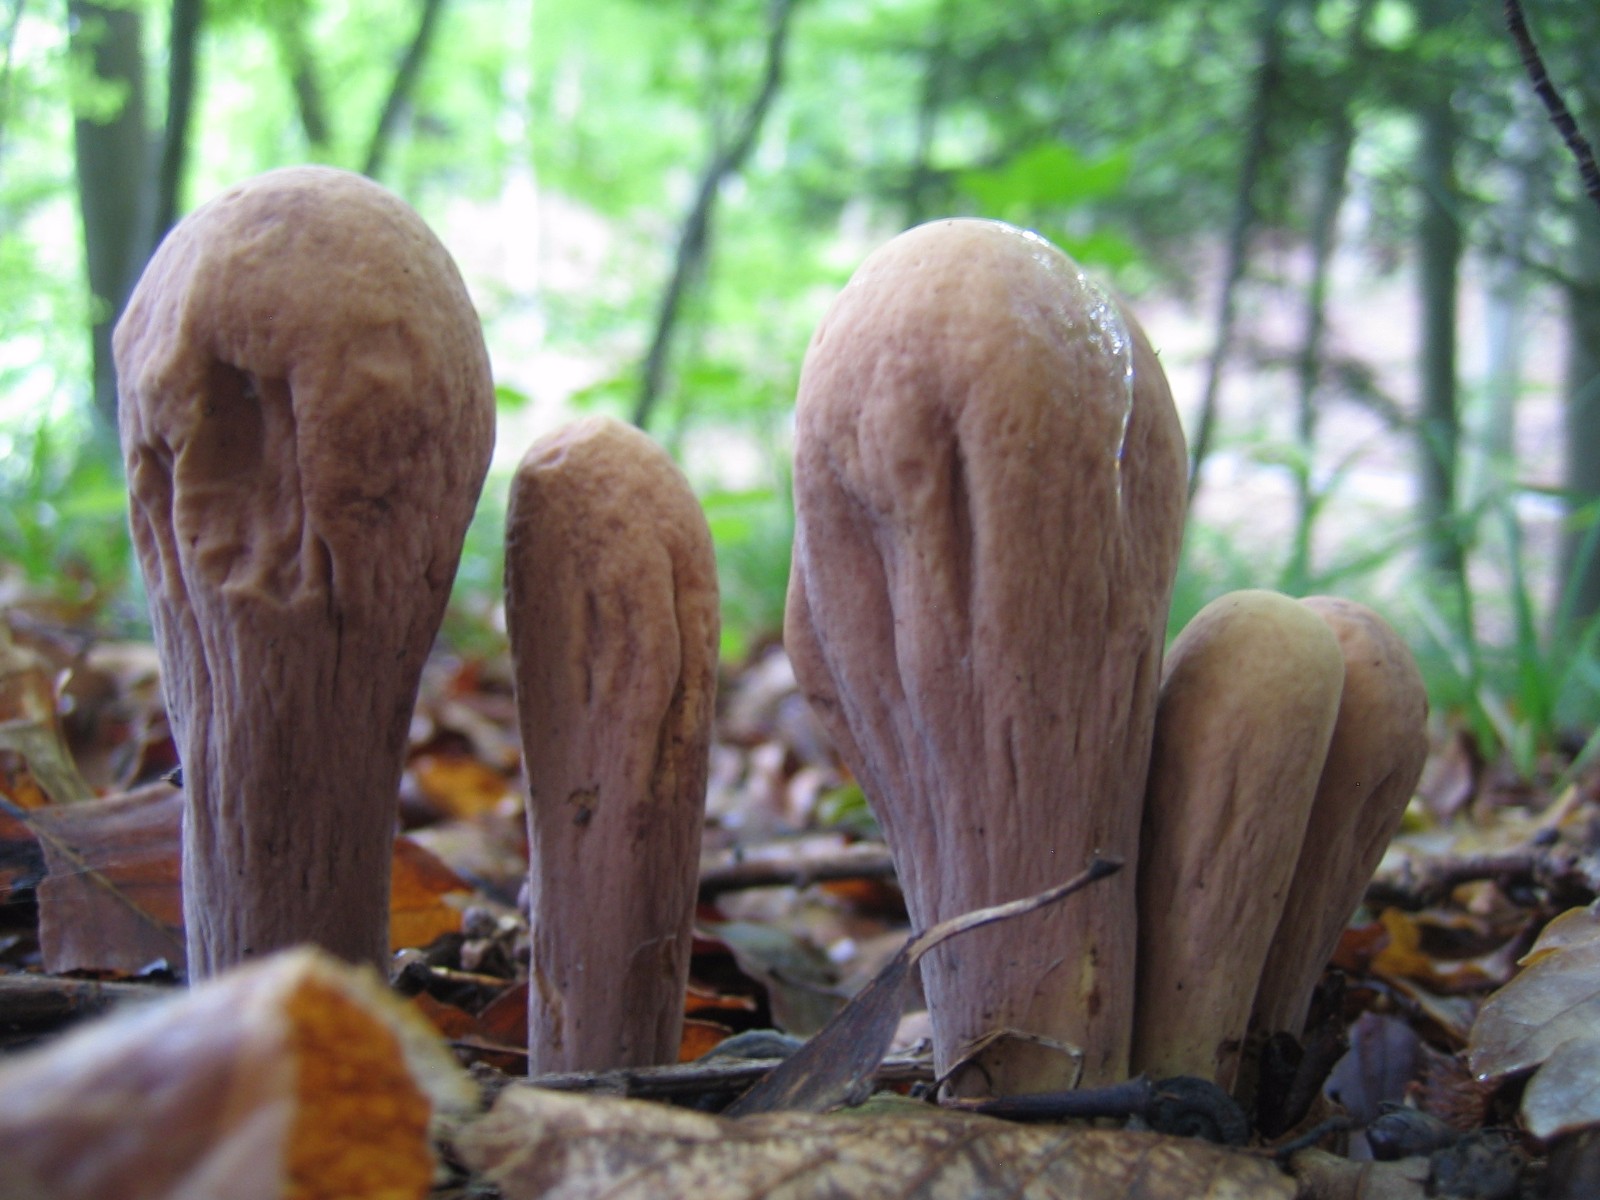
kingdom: Fungi
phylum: Basidiomycota
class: Agaricomycetes
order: Gomphales
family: Clavariadelphaceae
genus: Clavariadelphus
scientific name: Clavariadelphus pistillaris
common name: herkules-kæmpekølle
